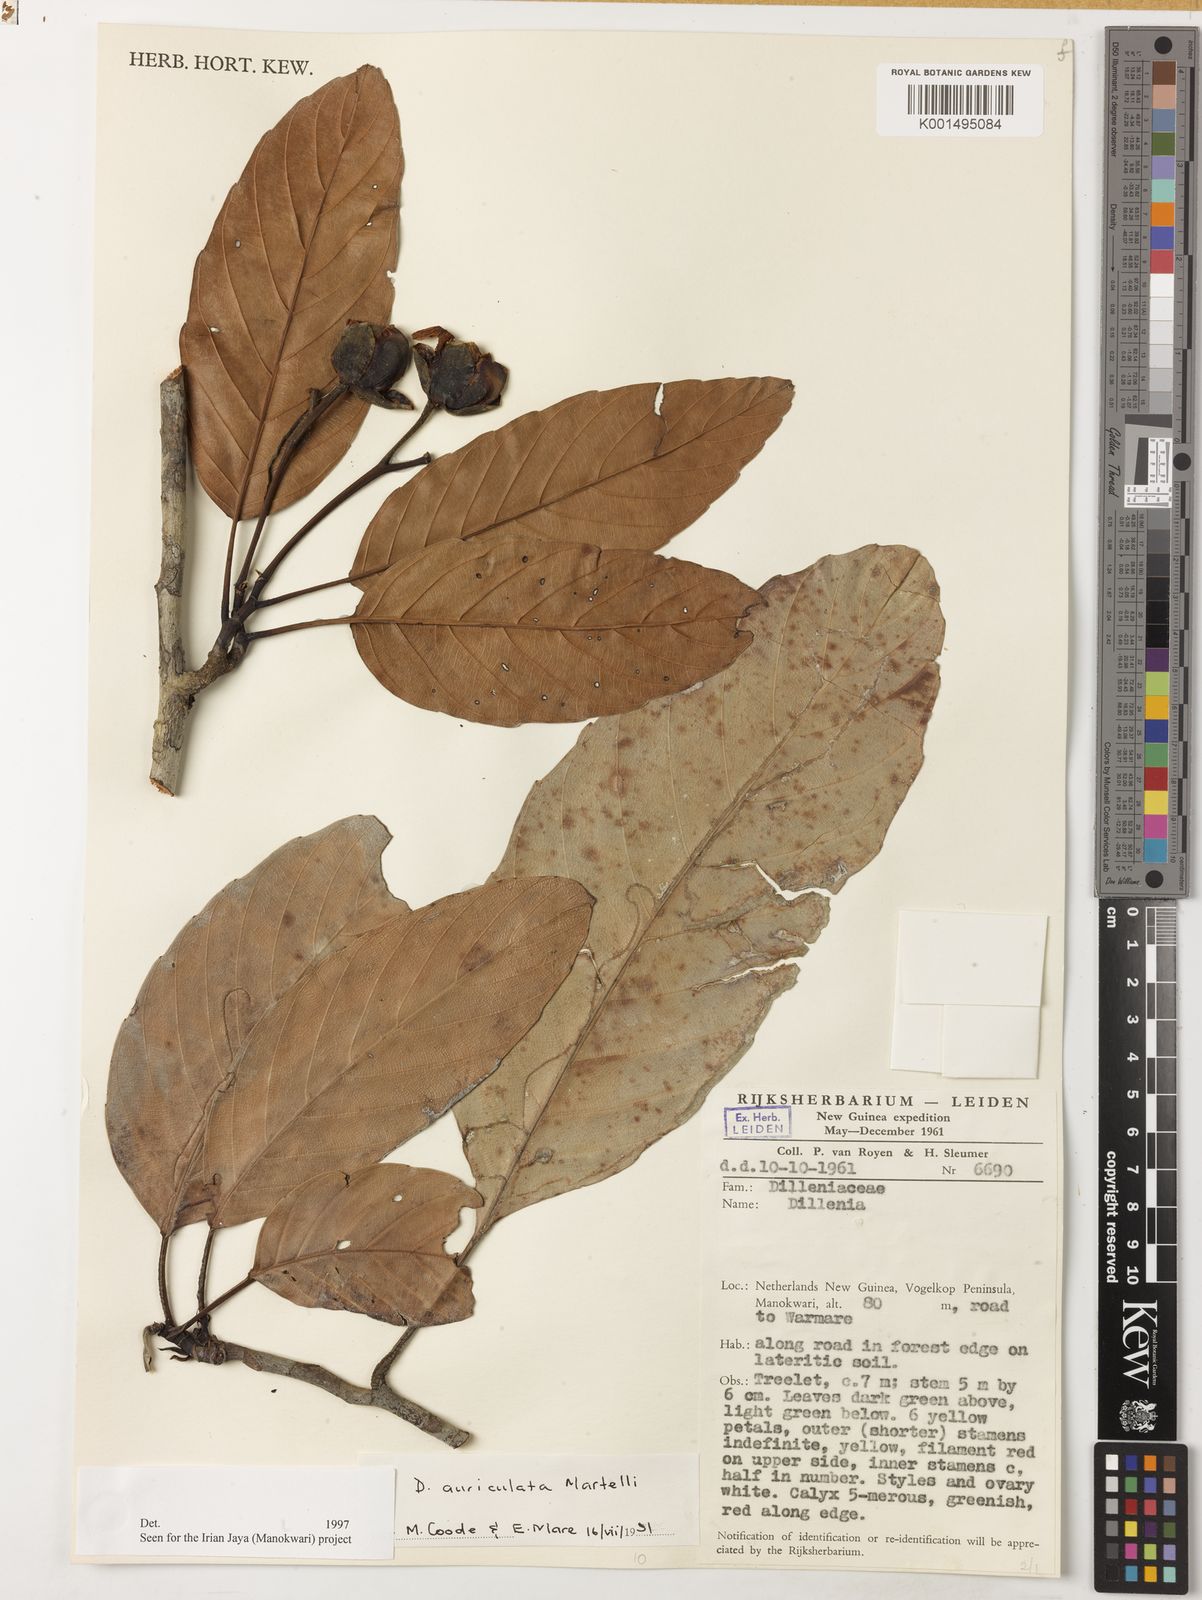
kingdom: Plantae
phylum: Tracheophyta
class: Magnoliopsida
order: Dilleniales
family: Dilleniaceae
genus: Dillenia
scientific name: Dillenia auriculata
